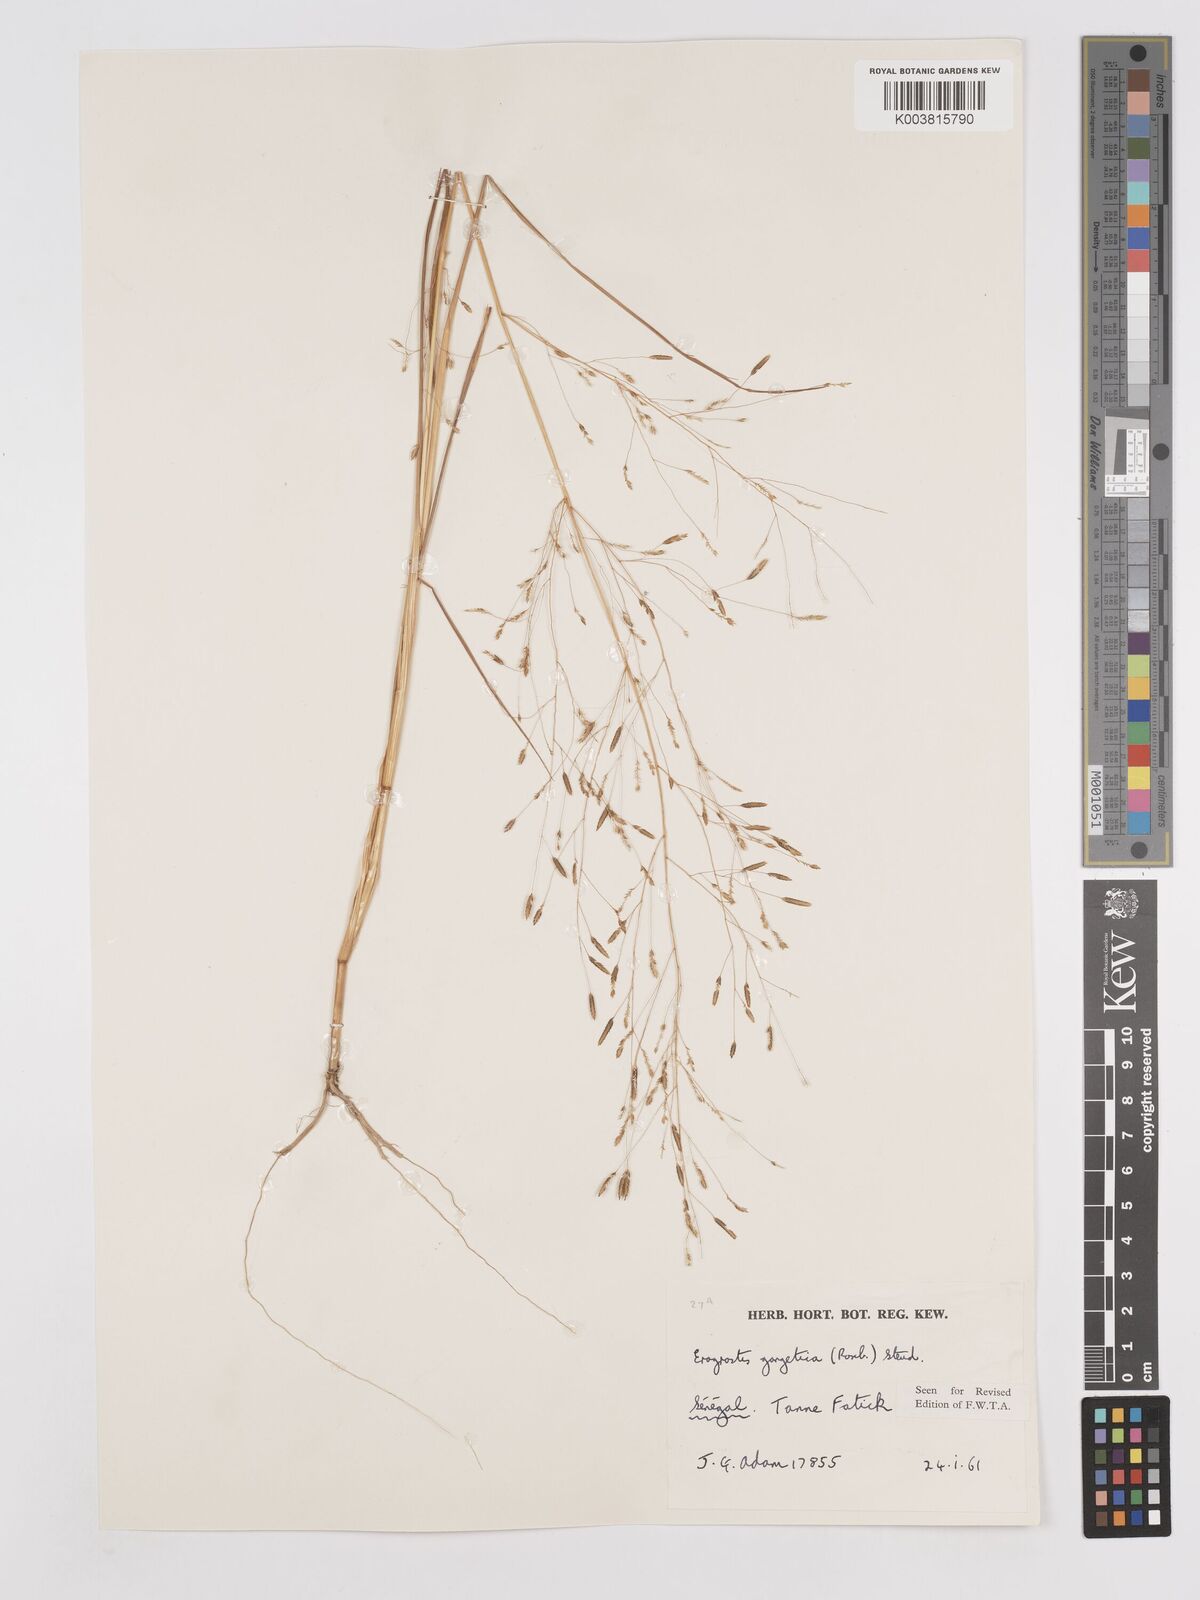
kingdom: Plantae
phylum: Tracheophyta
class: Liliopsida
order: Poales
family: Poaceae
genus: Eragrostis
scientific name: Eragrostis gangetica
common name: Slimflower lovegrass
